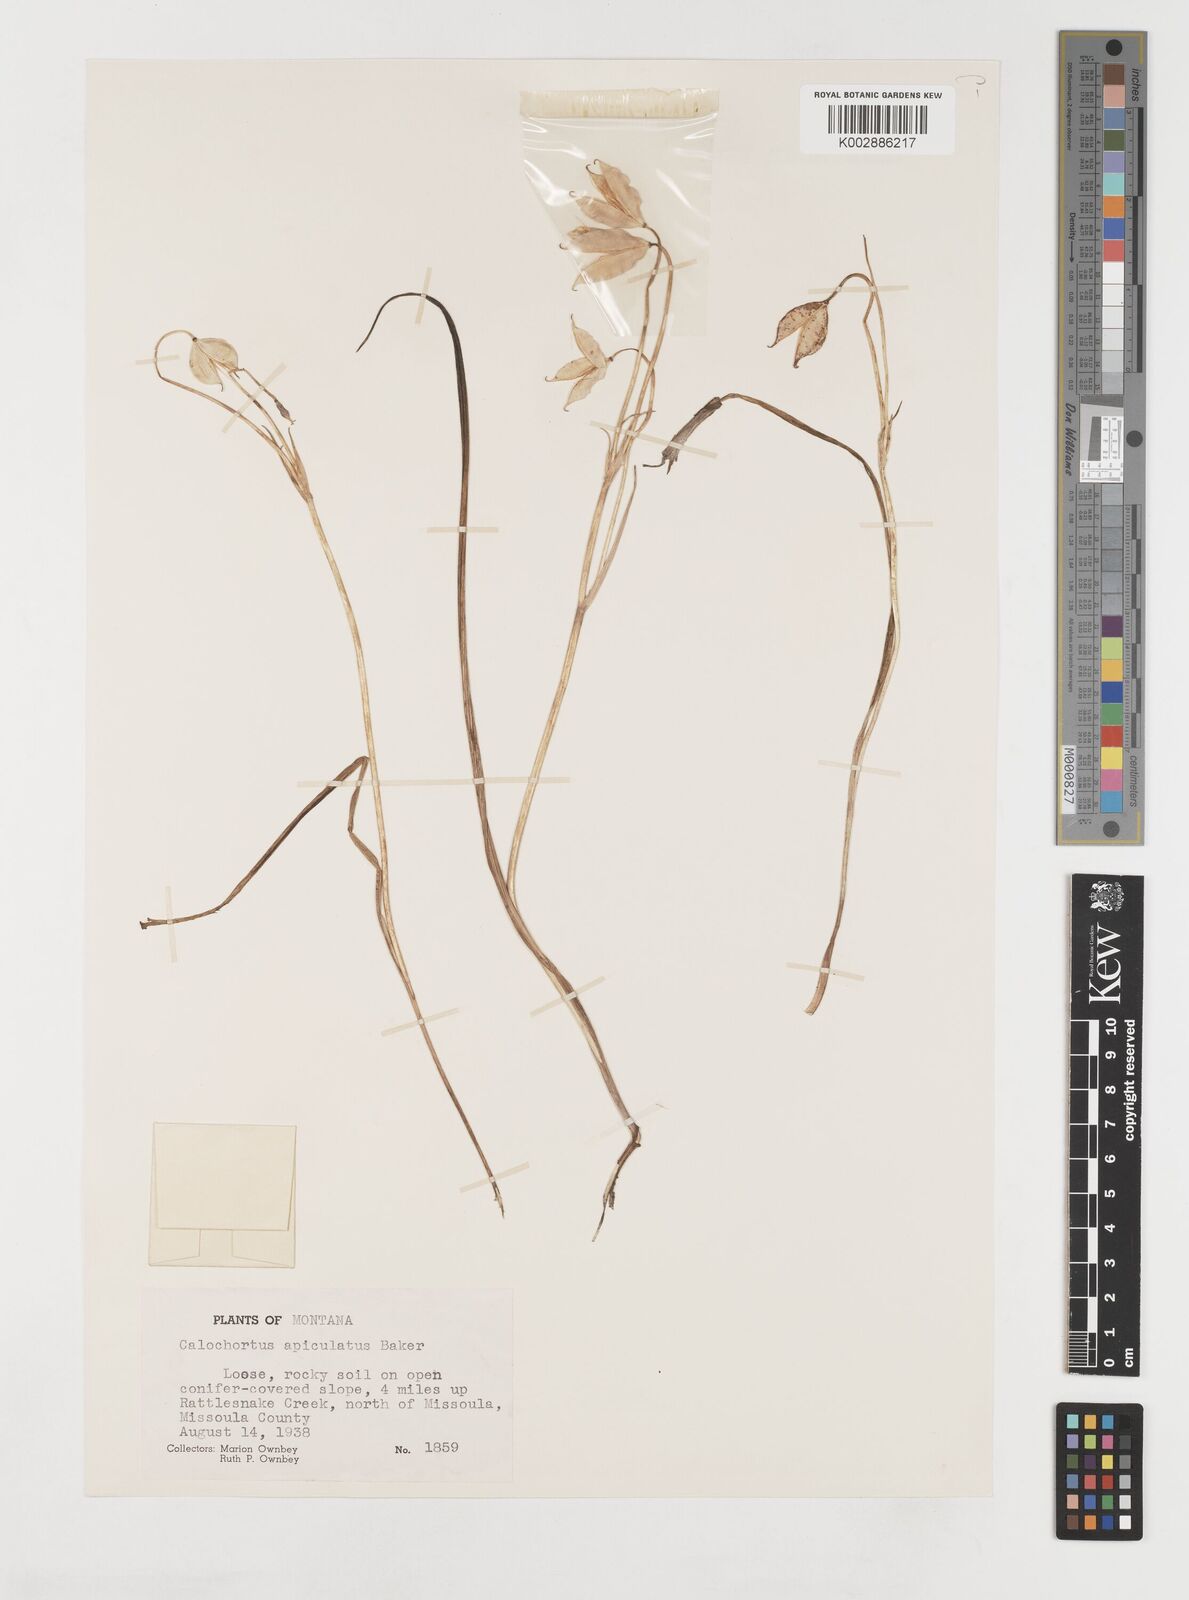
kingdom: Plantae
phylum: Tracheophyta
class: Liliopsida
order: Liliales
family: Liliaceae
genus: Calochortus
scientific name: Calochortus apiculatus
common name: Baker's mariposa lily
